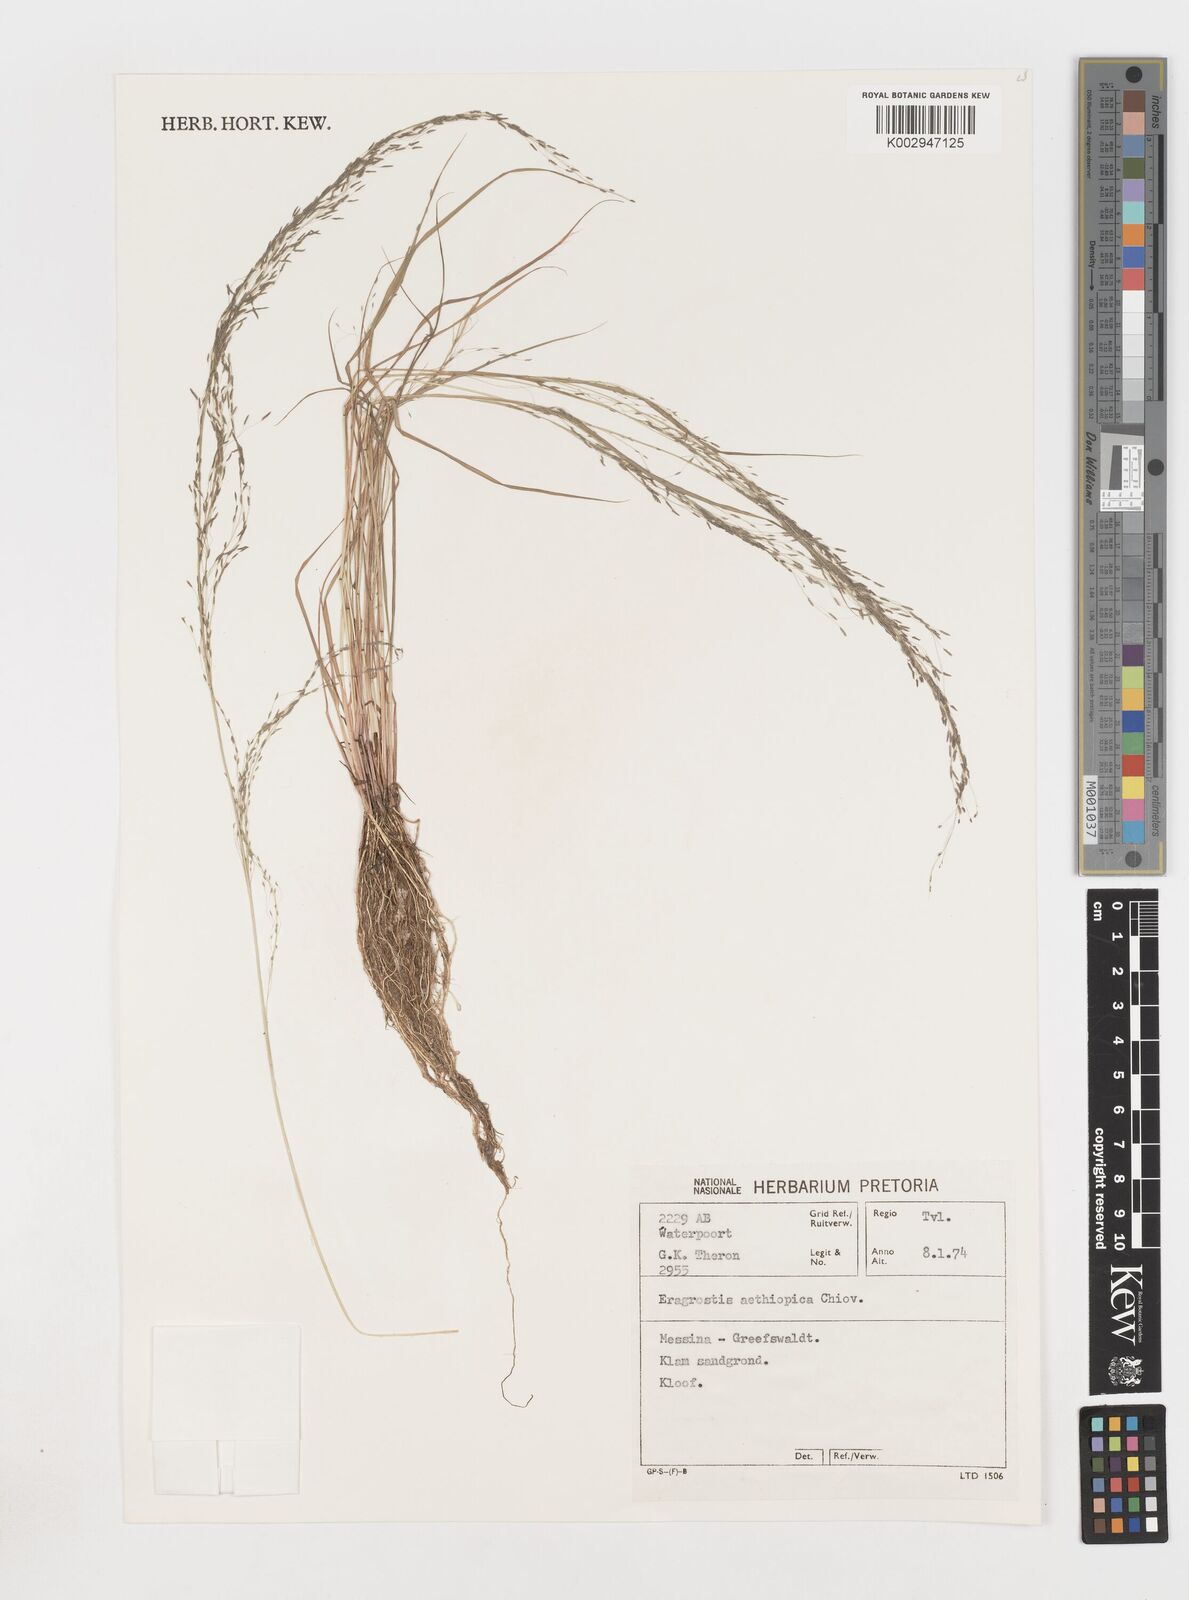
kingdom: Plantae
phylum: Tracheophyta
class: Liliopsida
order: Poales
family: Poaceae
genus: Eragrostis
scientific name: Eragrostis tef
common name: Teff
